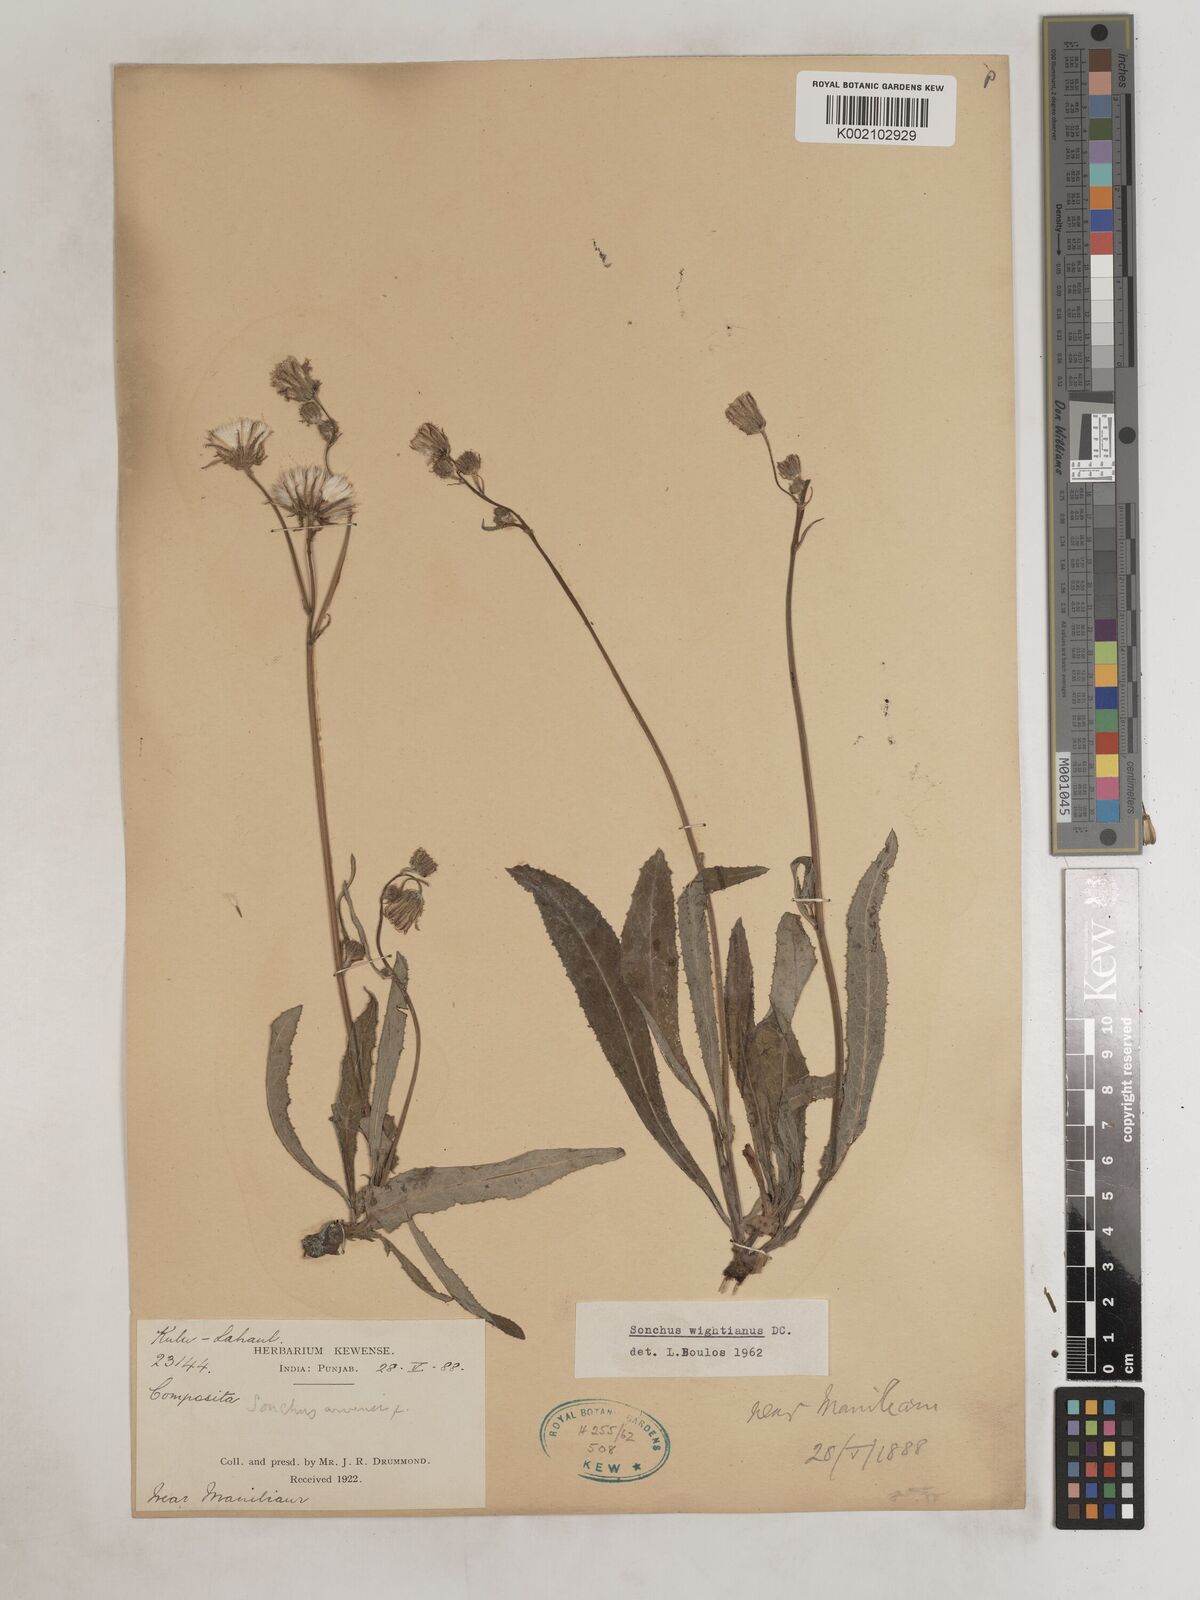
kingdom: Plantae
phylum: Tracheophyta
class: Magnoliopsida
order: Asterales
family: Asteraceae
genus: Sonchus
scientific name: Sonchus arvensis
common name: Perennial sow-thistle
